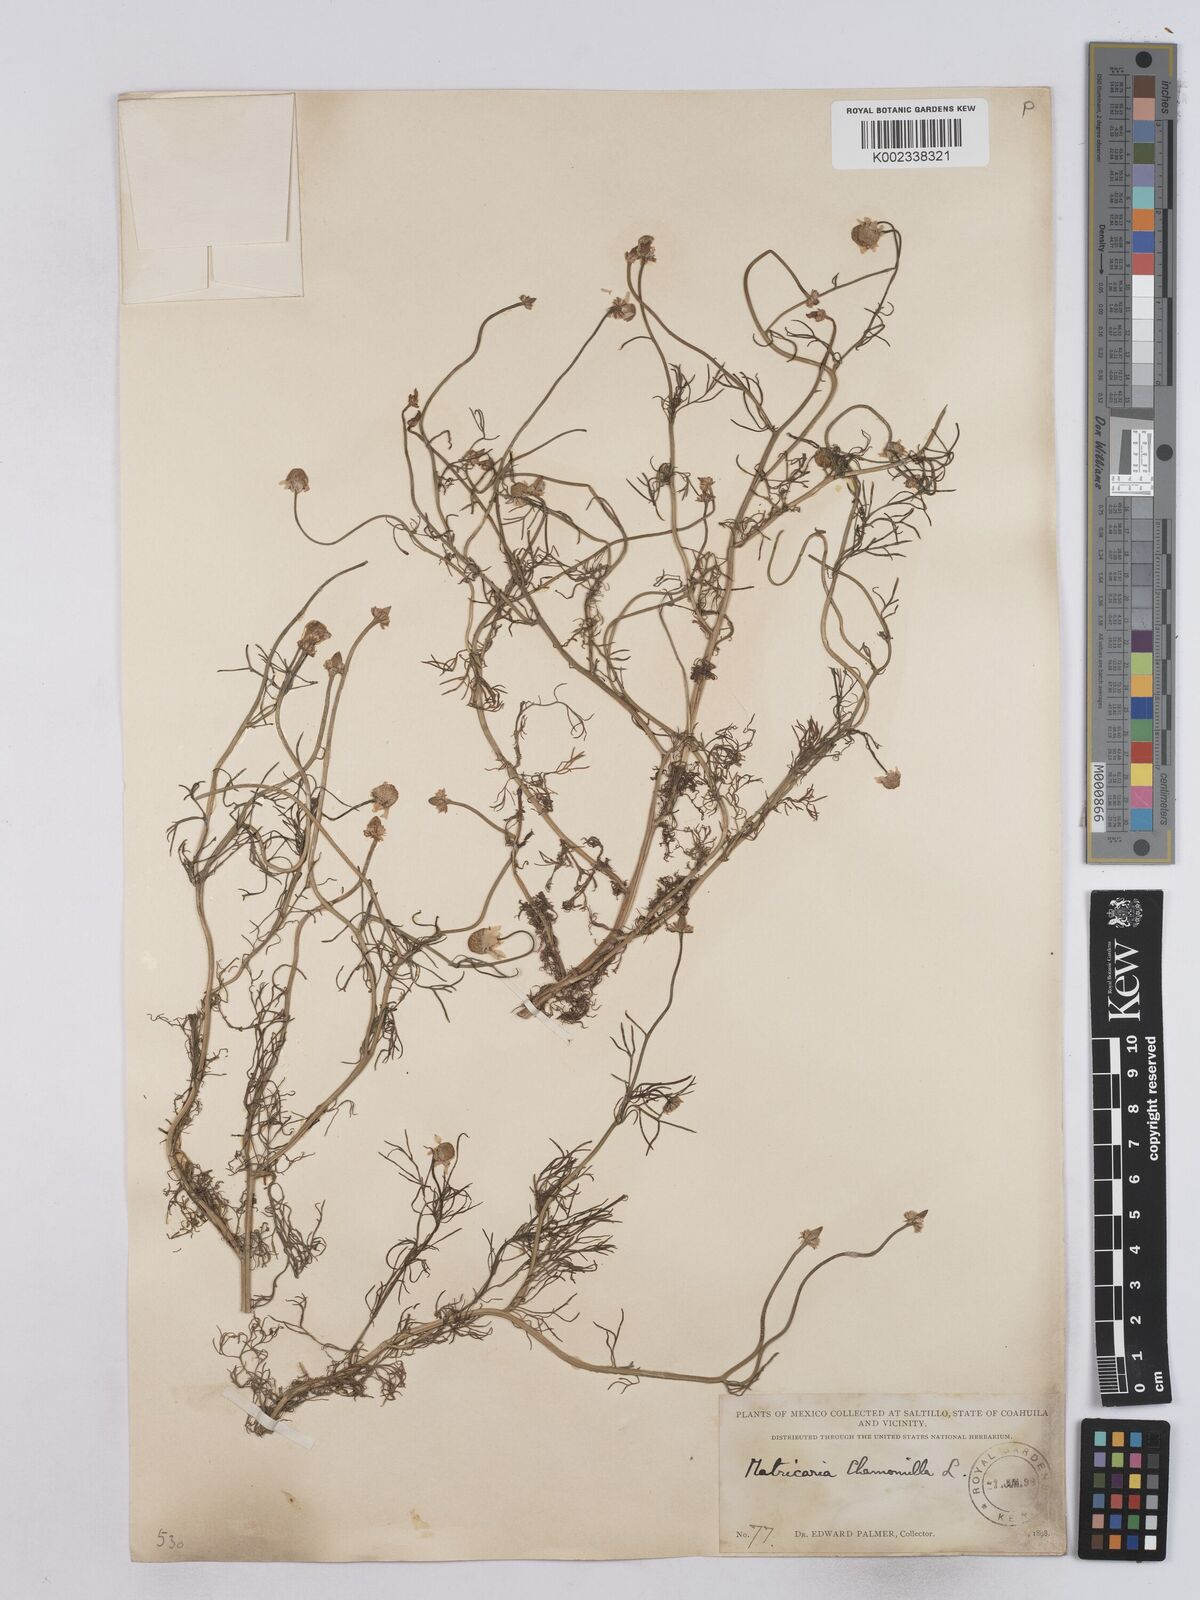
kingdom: Plantae
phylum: Tracheophyta
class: Magnoliopsida
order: Asterales
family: Asteraceae
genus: Matricaria
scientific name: Matricaria chamomilla
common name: Scented mayweed
